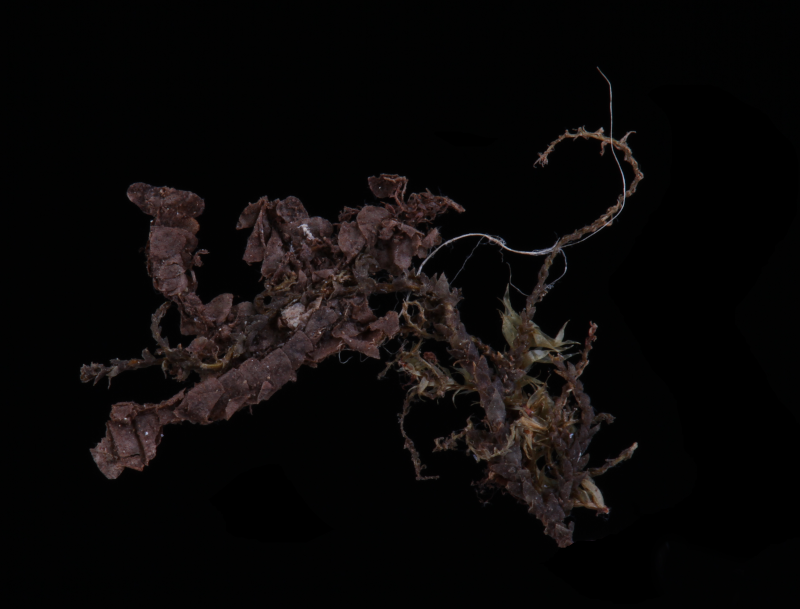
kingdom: Plantae
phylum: Marchantiophyta
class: Jungermanniopsida
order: Jungermanniales
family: Mastigophoraceae
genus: Mastigophora
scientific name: Mastigophora diclados
